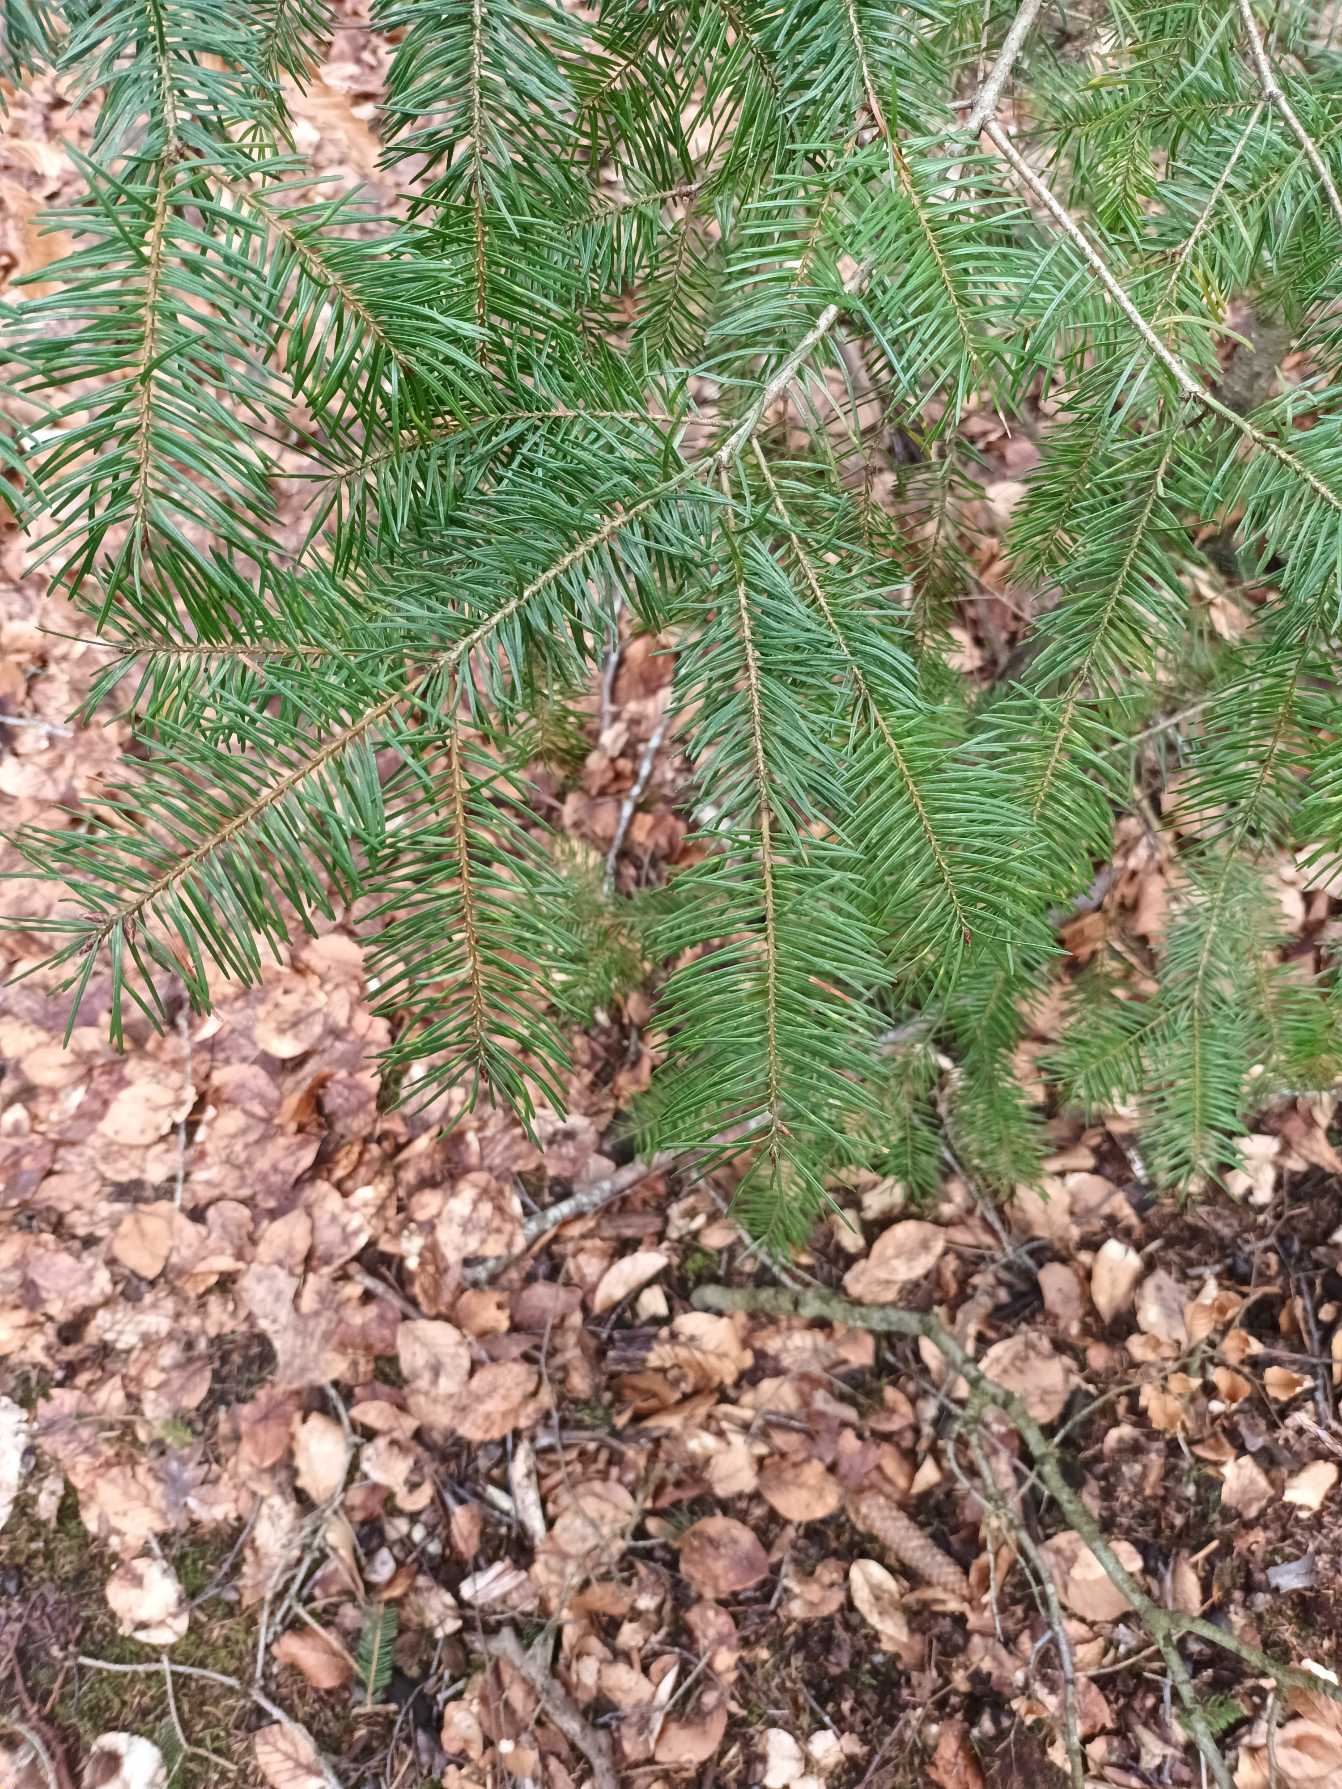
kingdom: Plantae
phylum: Tracheophyta
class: Pinopsida
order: Pinales
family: Pinaceae
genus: Pseudotsuga
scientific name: Pseudotsuga menziesii
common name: Douglasgran
